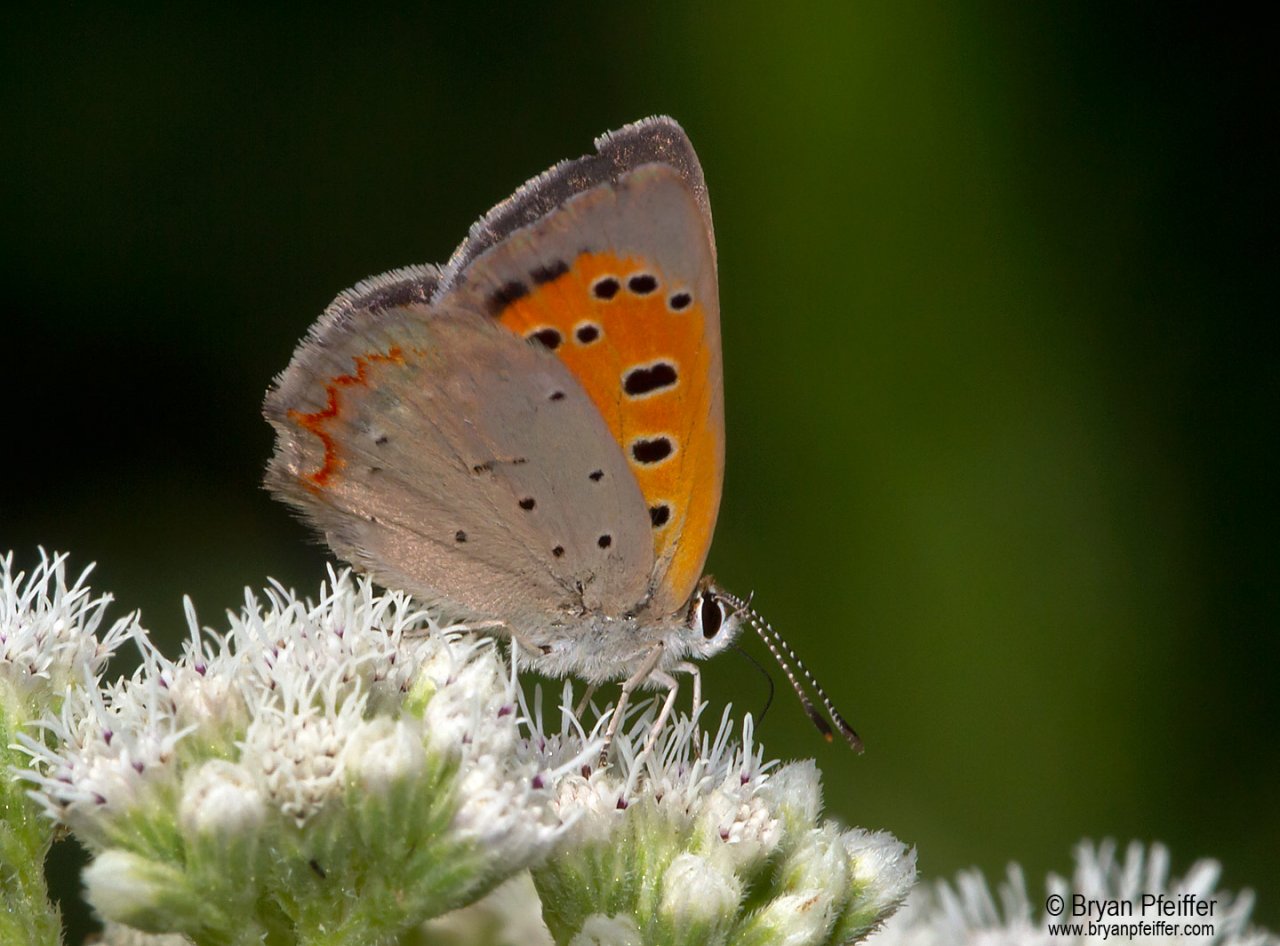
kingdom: Animalia
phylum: Arthropoda
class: Insecta
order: Lepidoptera
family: Lycaenidae
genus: Lycaena
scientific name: Lycaena phlaeas
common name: American Copper
